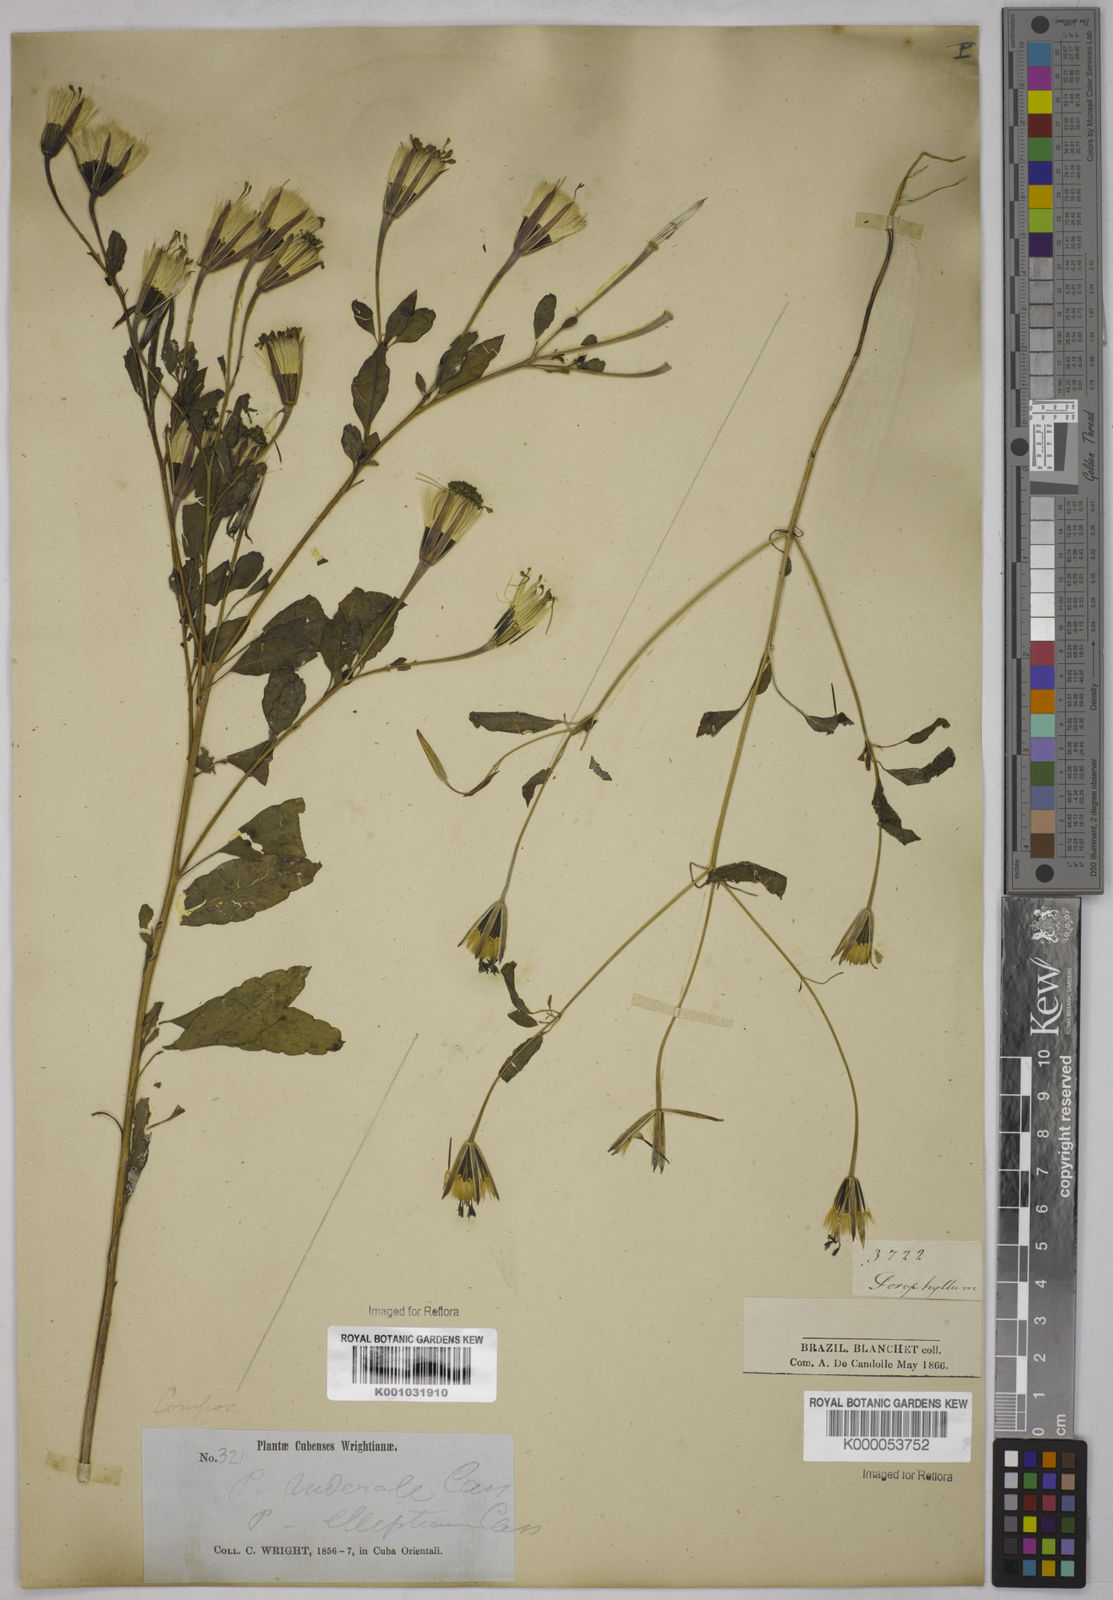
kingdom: Plantae
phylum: Tracheophyta
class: Magnoliopsida
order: Asterales
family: Asteraceae
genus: Porophyllum
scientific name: Porophyllum ruderale
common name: Yerba porosa
